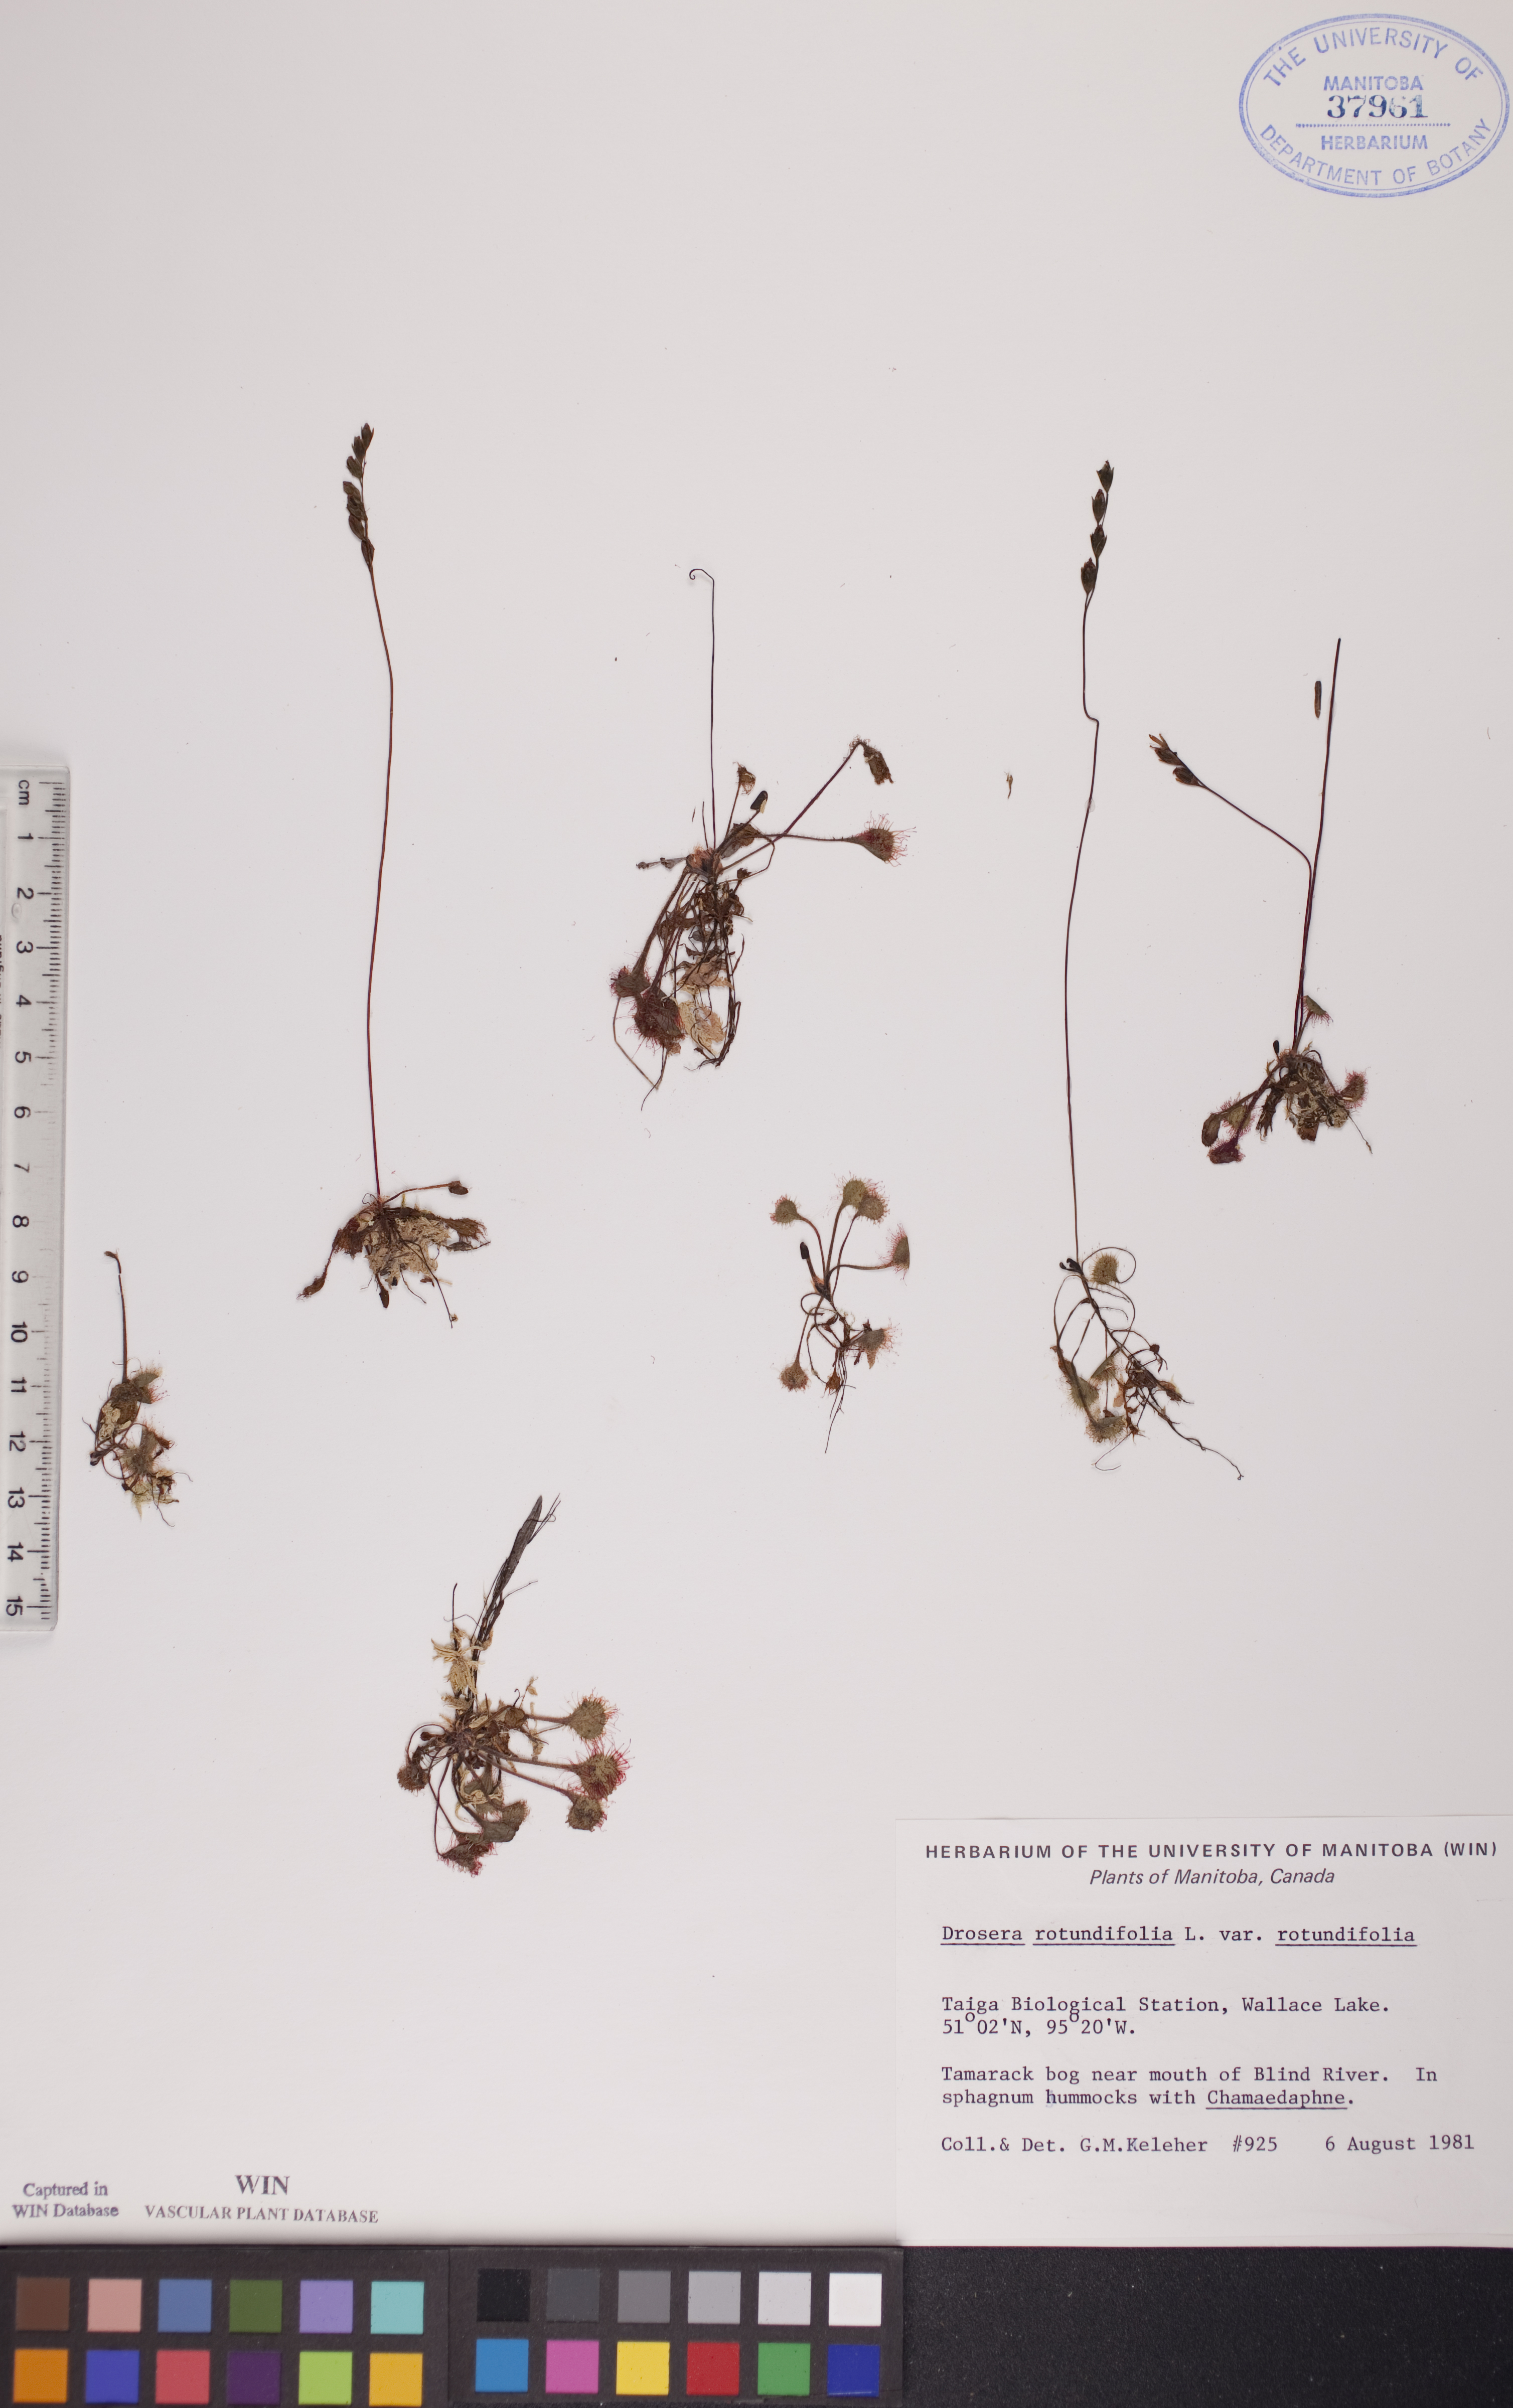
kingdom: Plantae
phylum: Tracheophyta
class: Magnoliopsida
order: Caryophyllales
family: Droseraceae
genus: Drosera
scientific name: Drosera rotundifolia
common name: Round-leaved sundew
